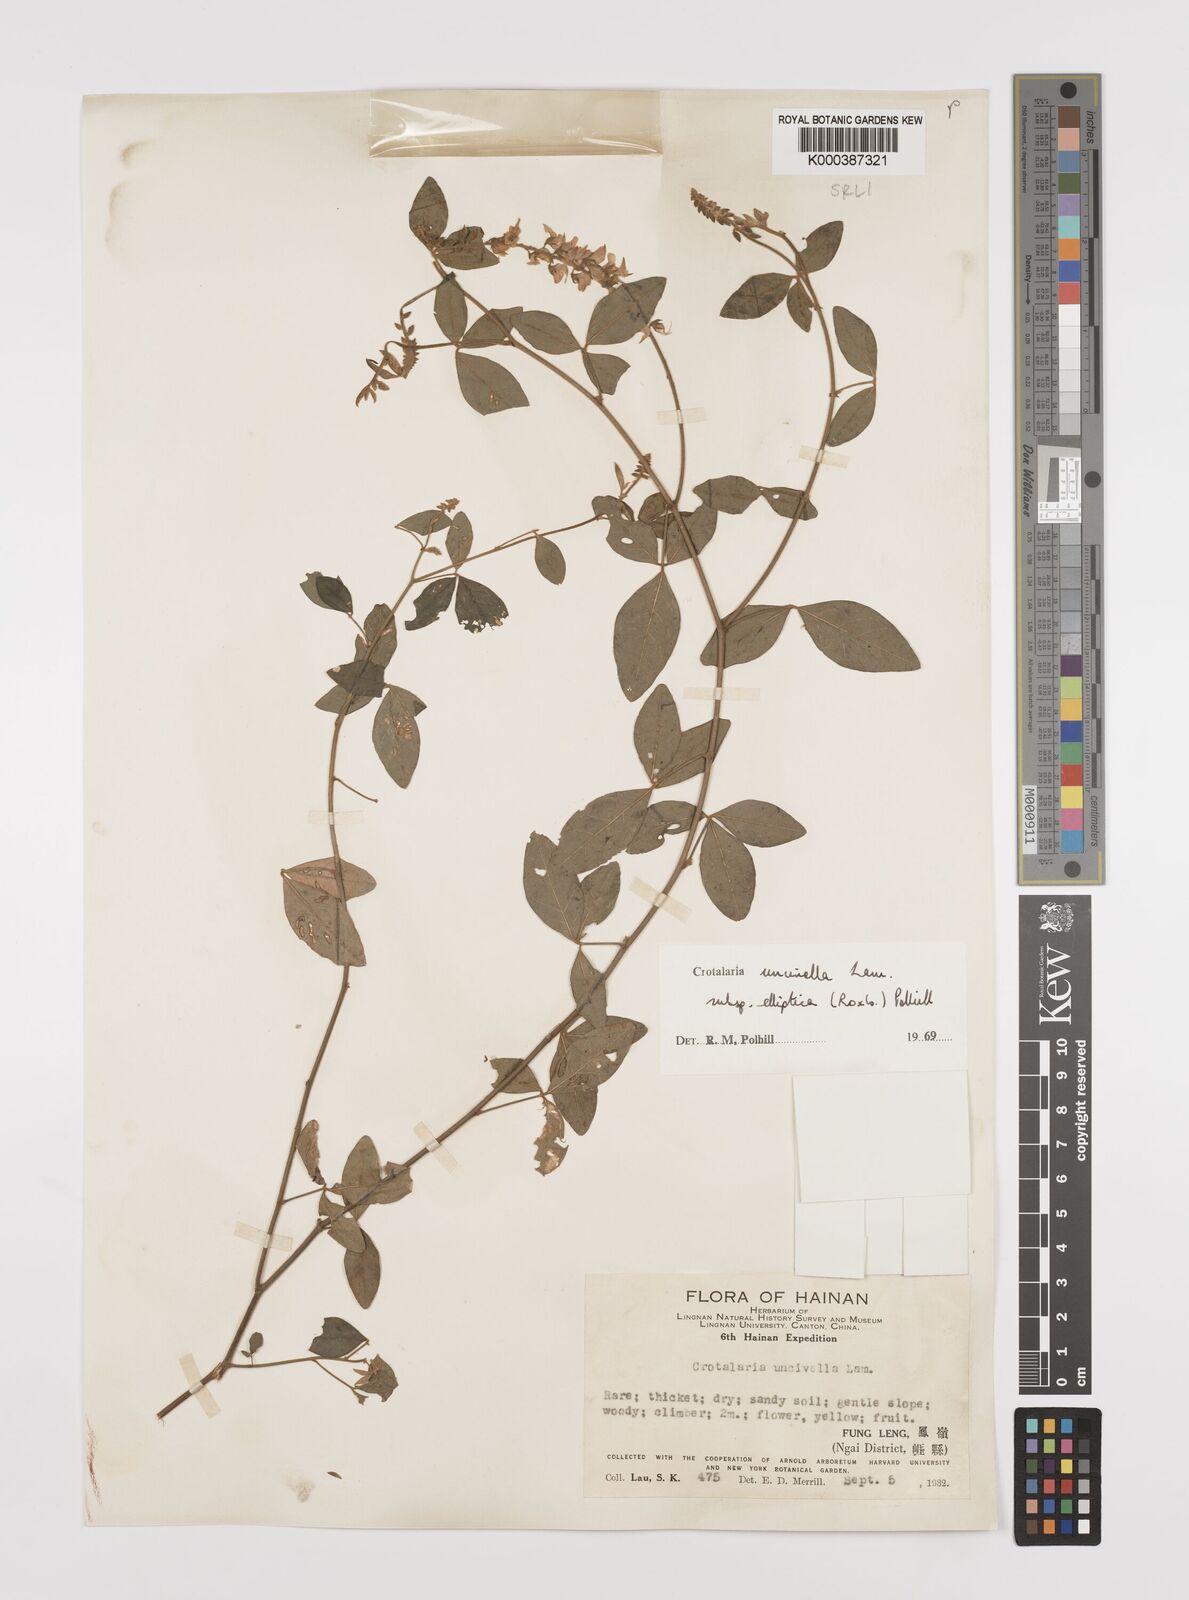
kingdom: Plantae
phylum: Tracheophyta
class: Magnoliopsida
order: Fabales
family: Fabaceae
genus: Crotalaria
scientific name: Crotalaria uncinella
